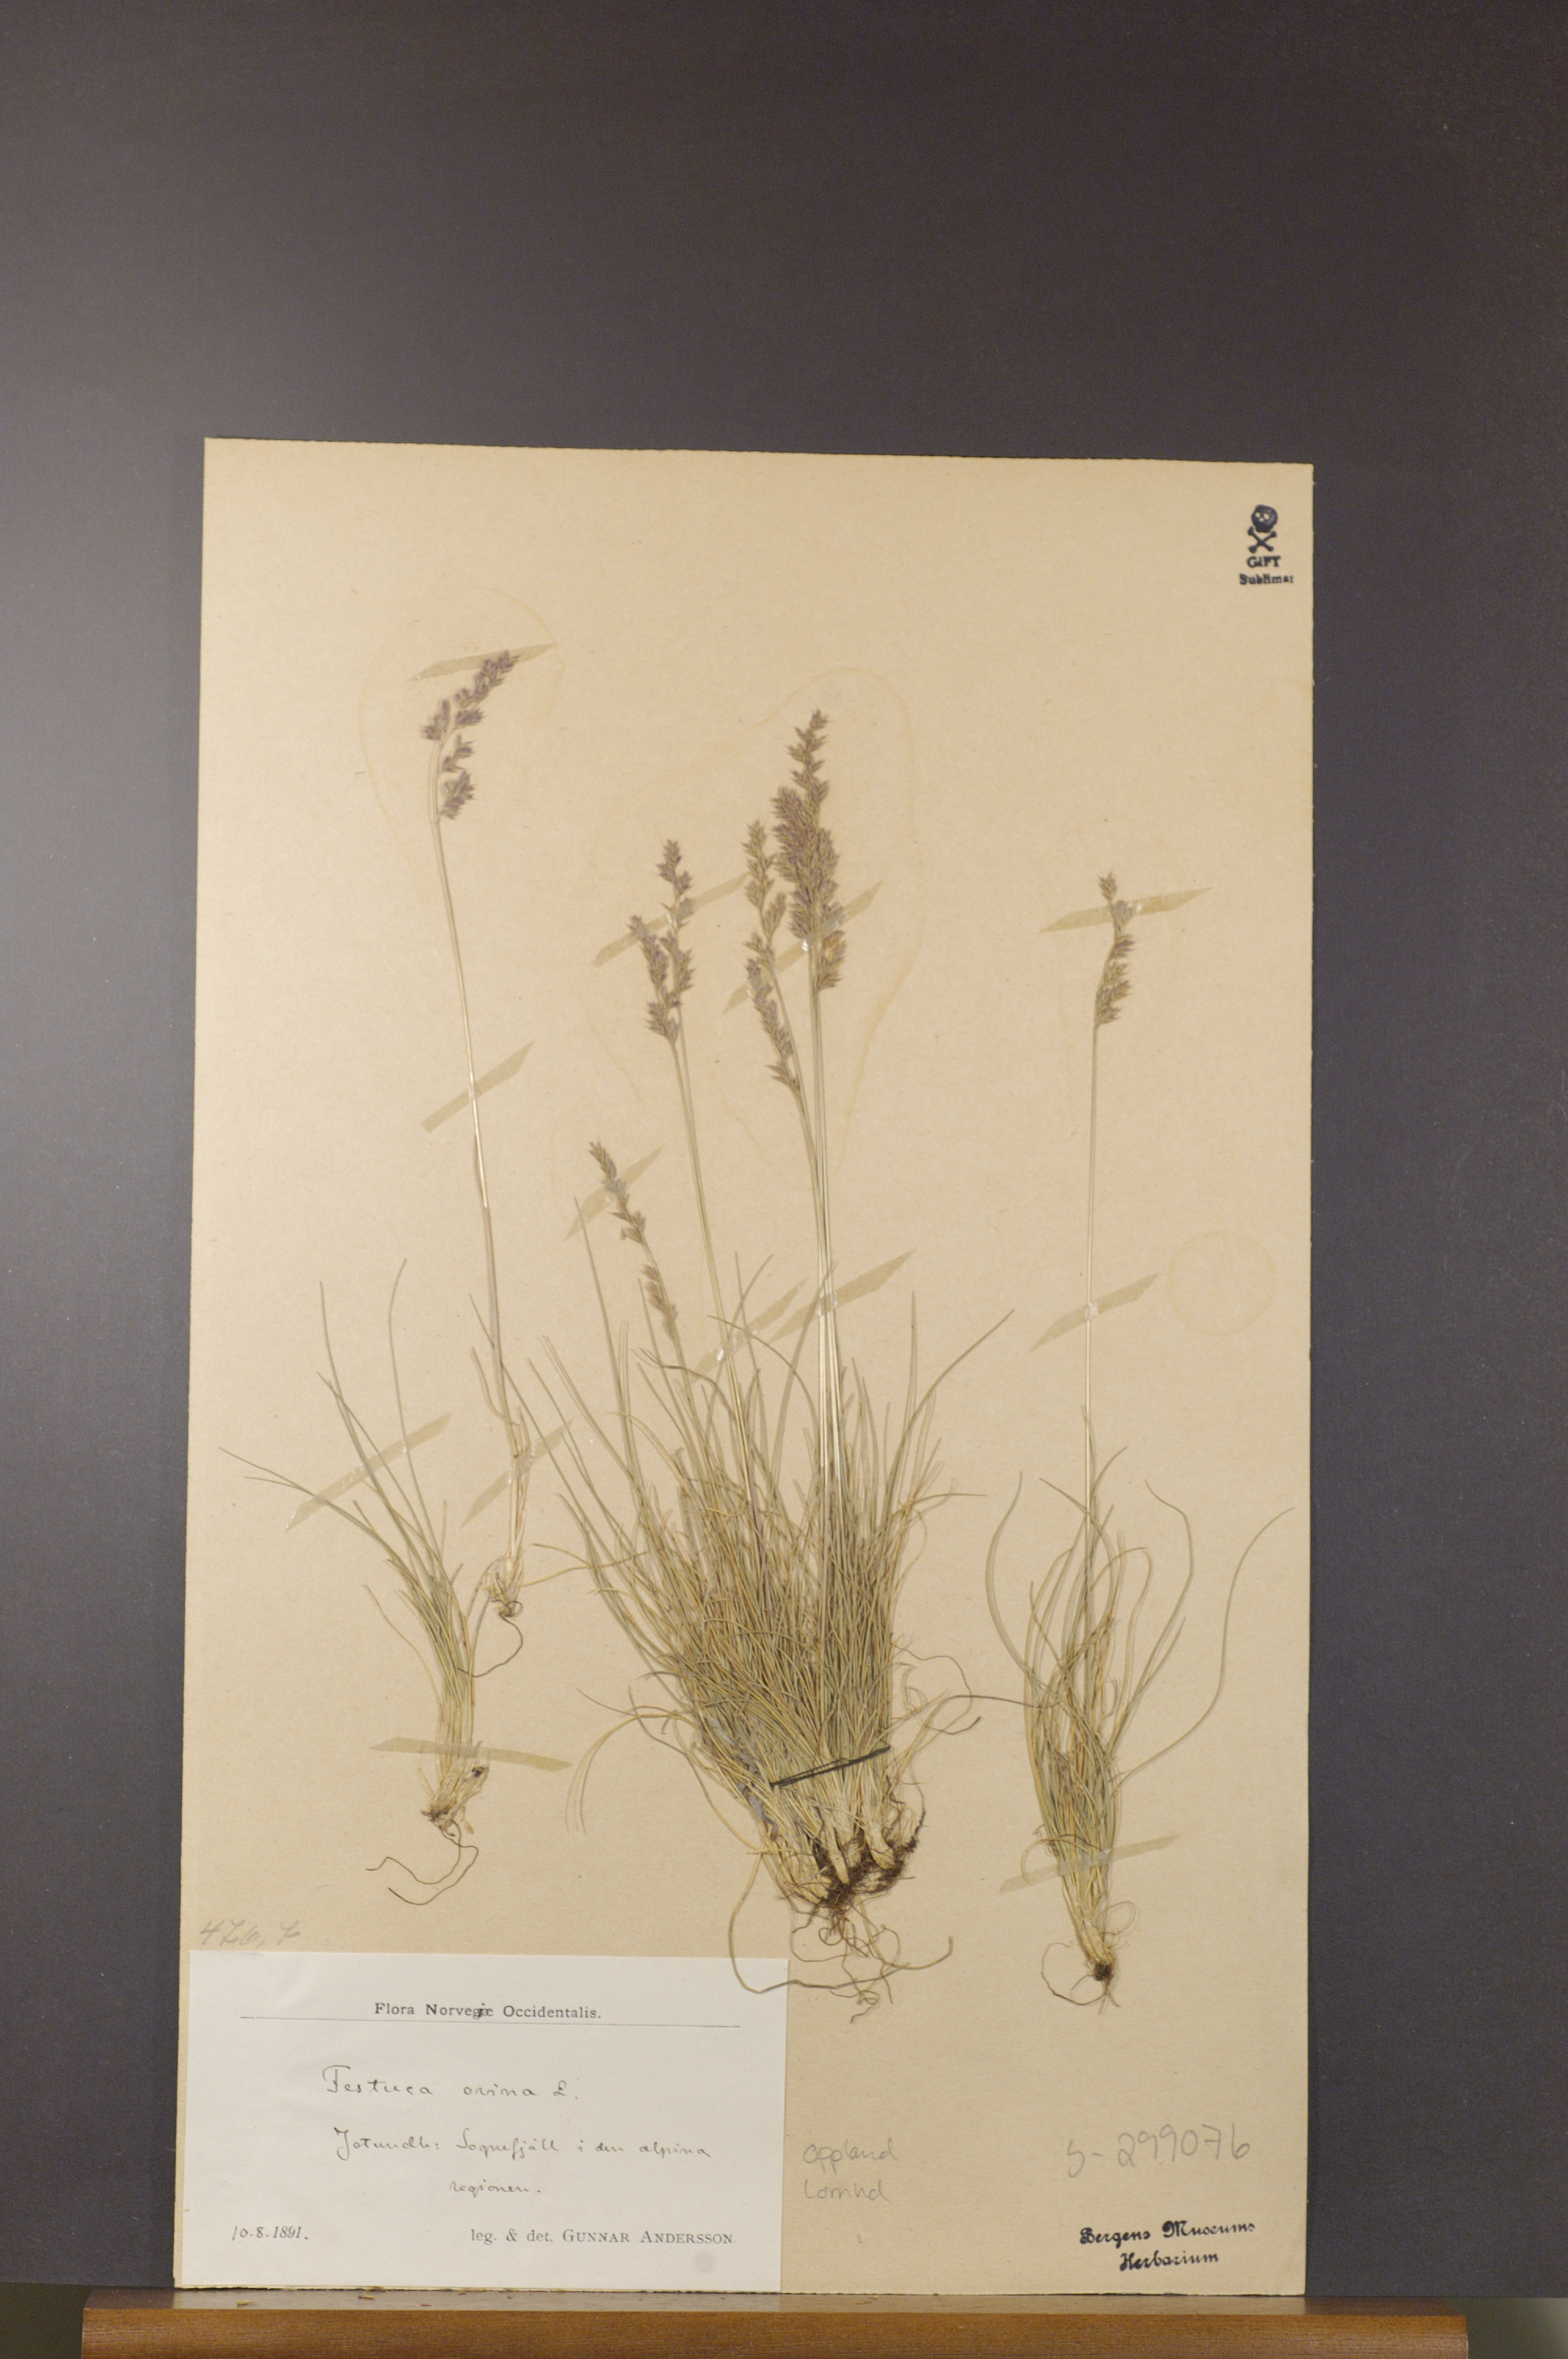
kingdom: Plantae
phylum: Tracheophyta
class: Liliopsida
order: Poales
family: Poaceae
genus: Festuca
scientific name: Festuca ovina
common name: Sheep fescue
